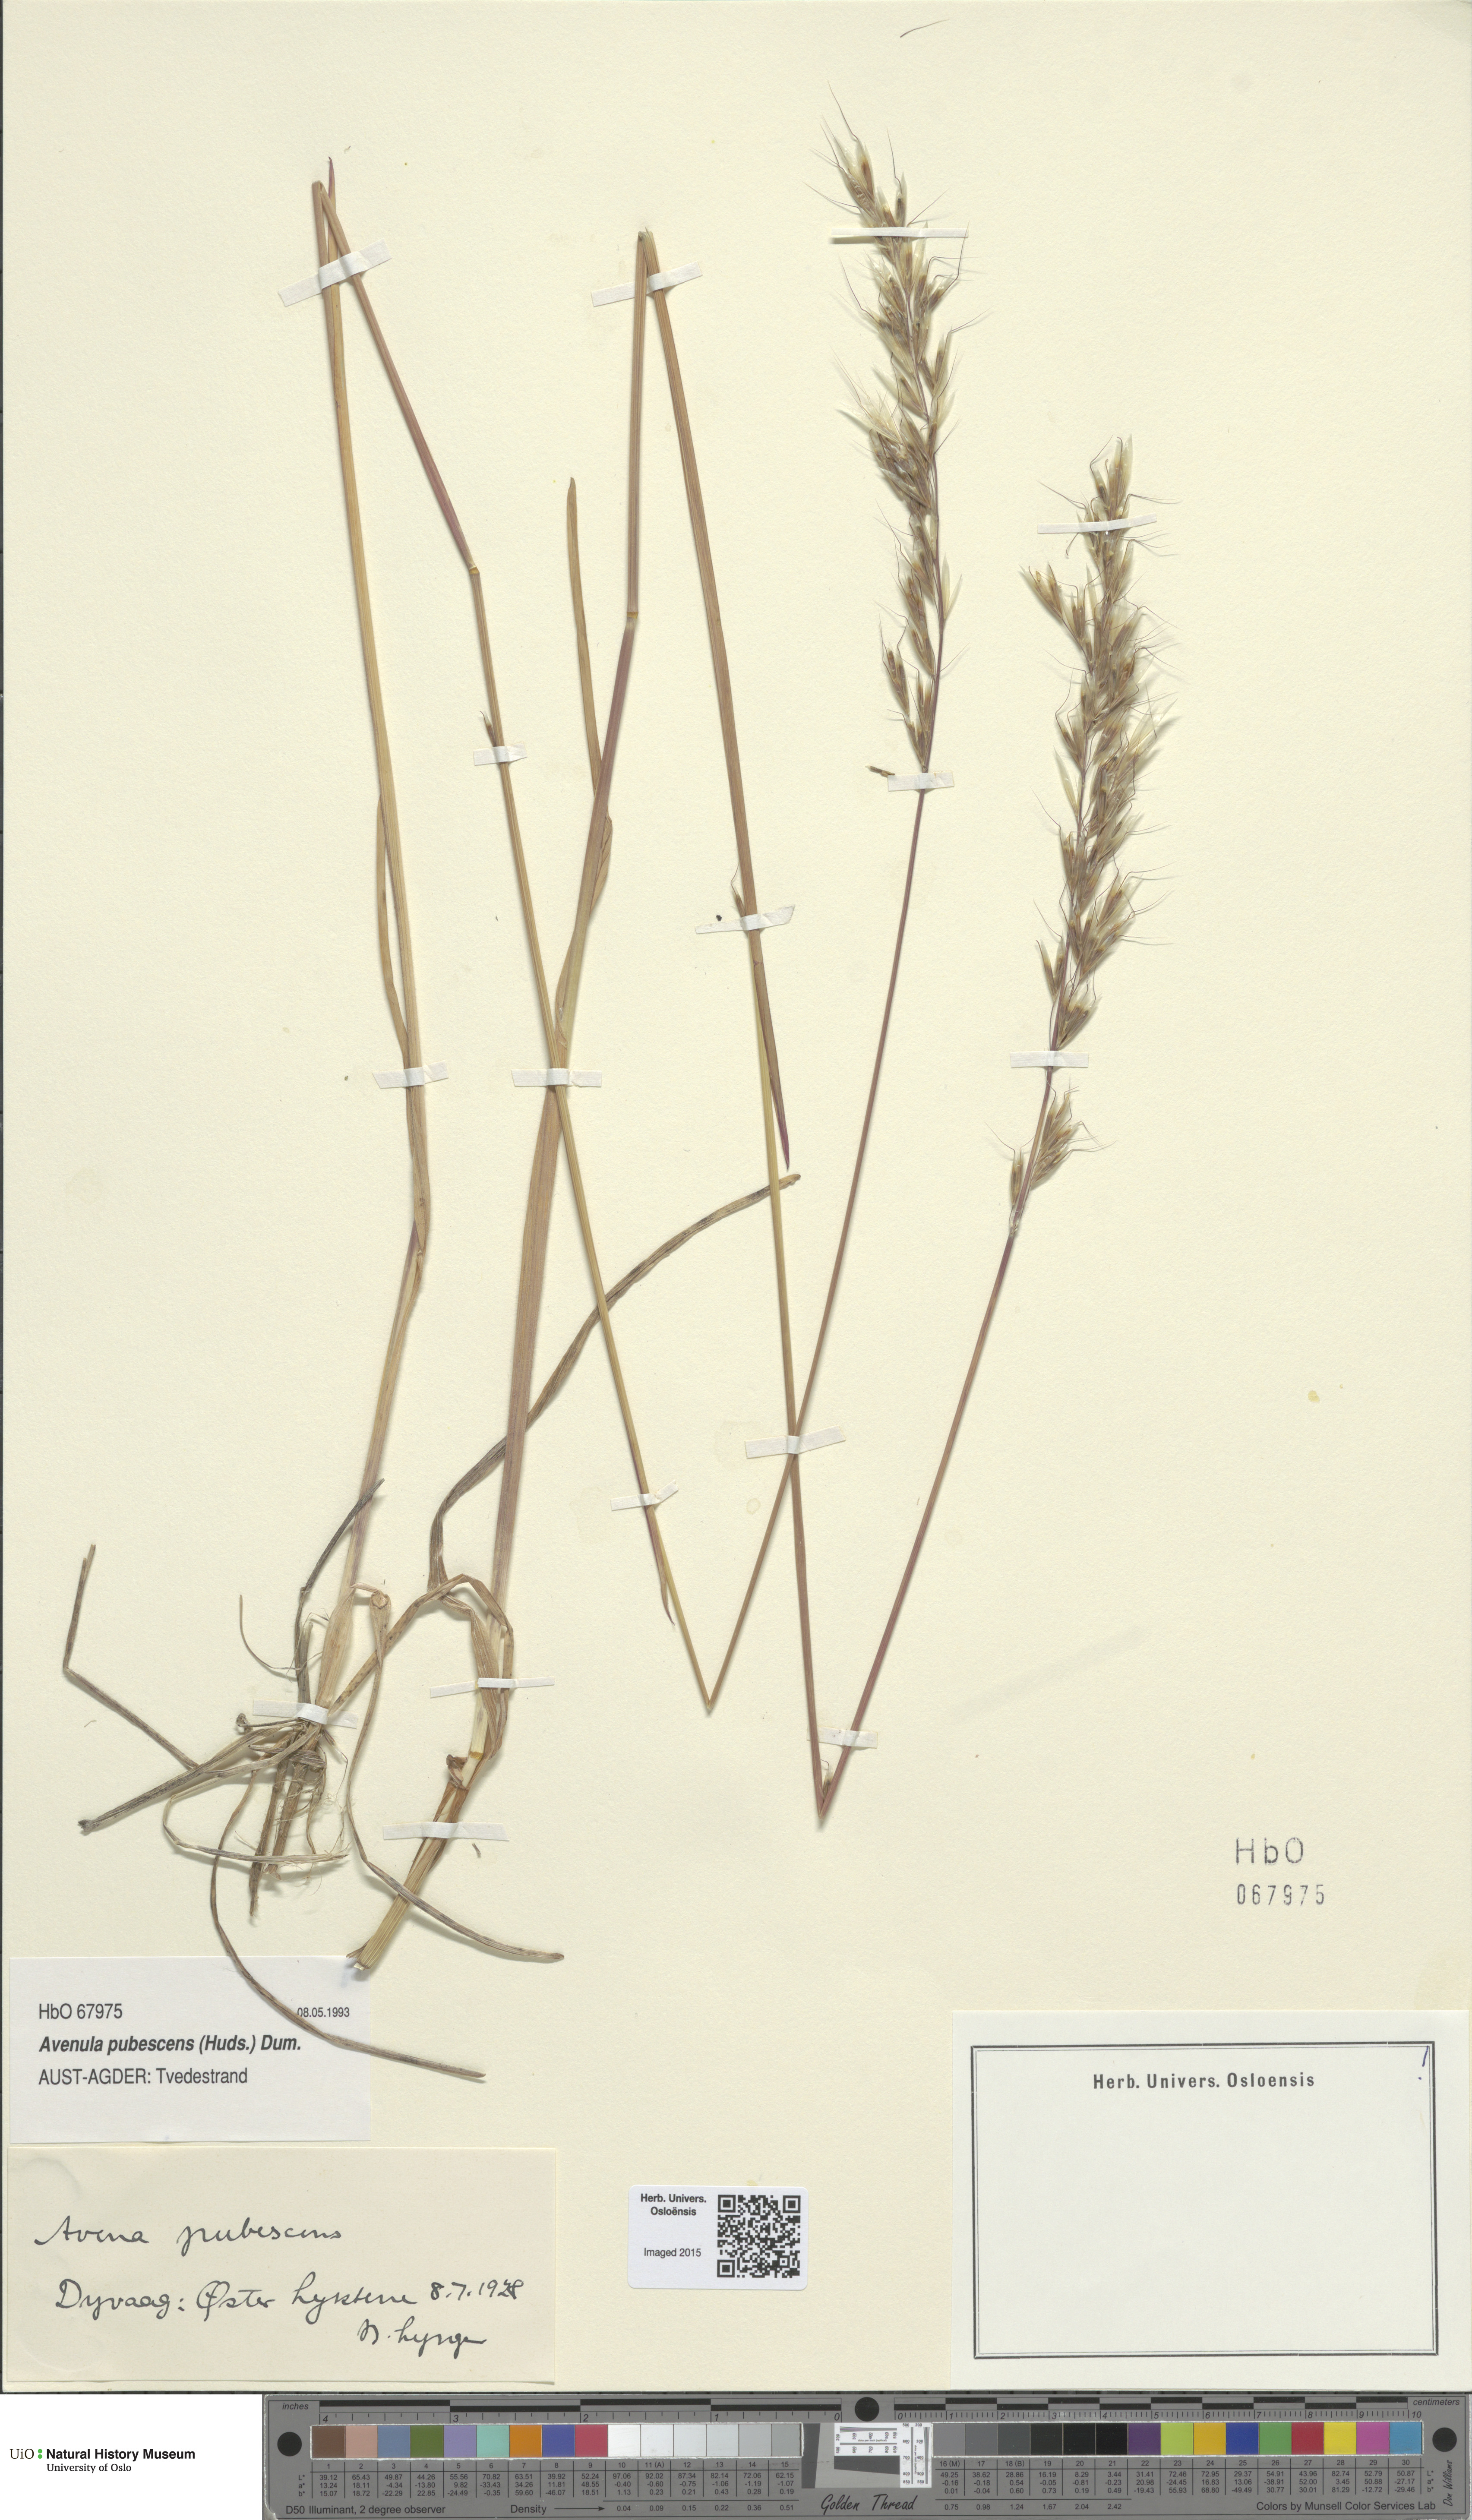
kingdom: Plantae
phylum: Tracheophyta
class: Liliopsida
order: Poales
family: Poaceae
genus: Avenula
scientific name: Avenula pubescens
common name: Downy alpine oatgrass
